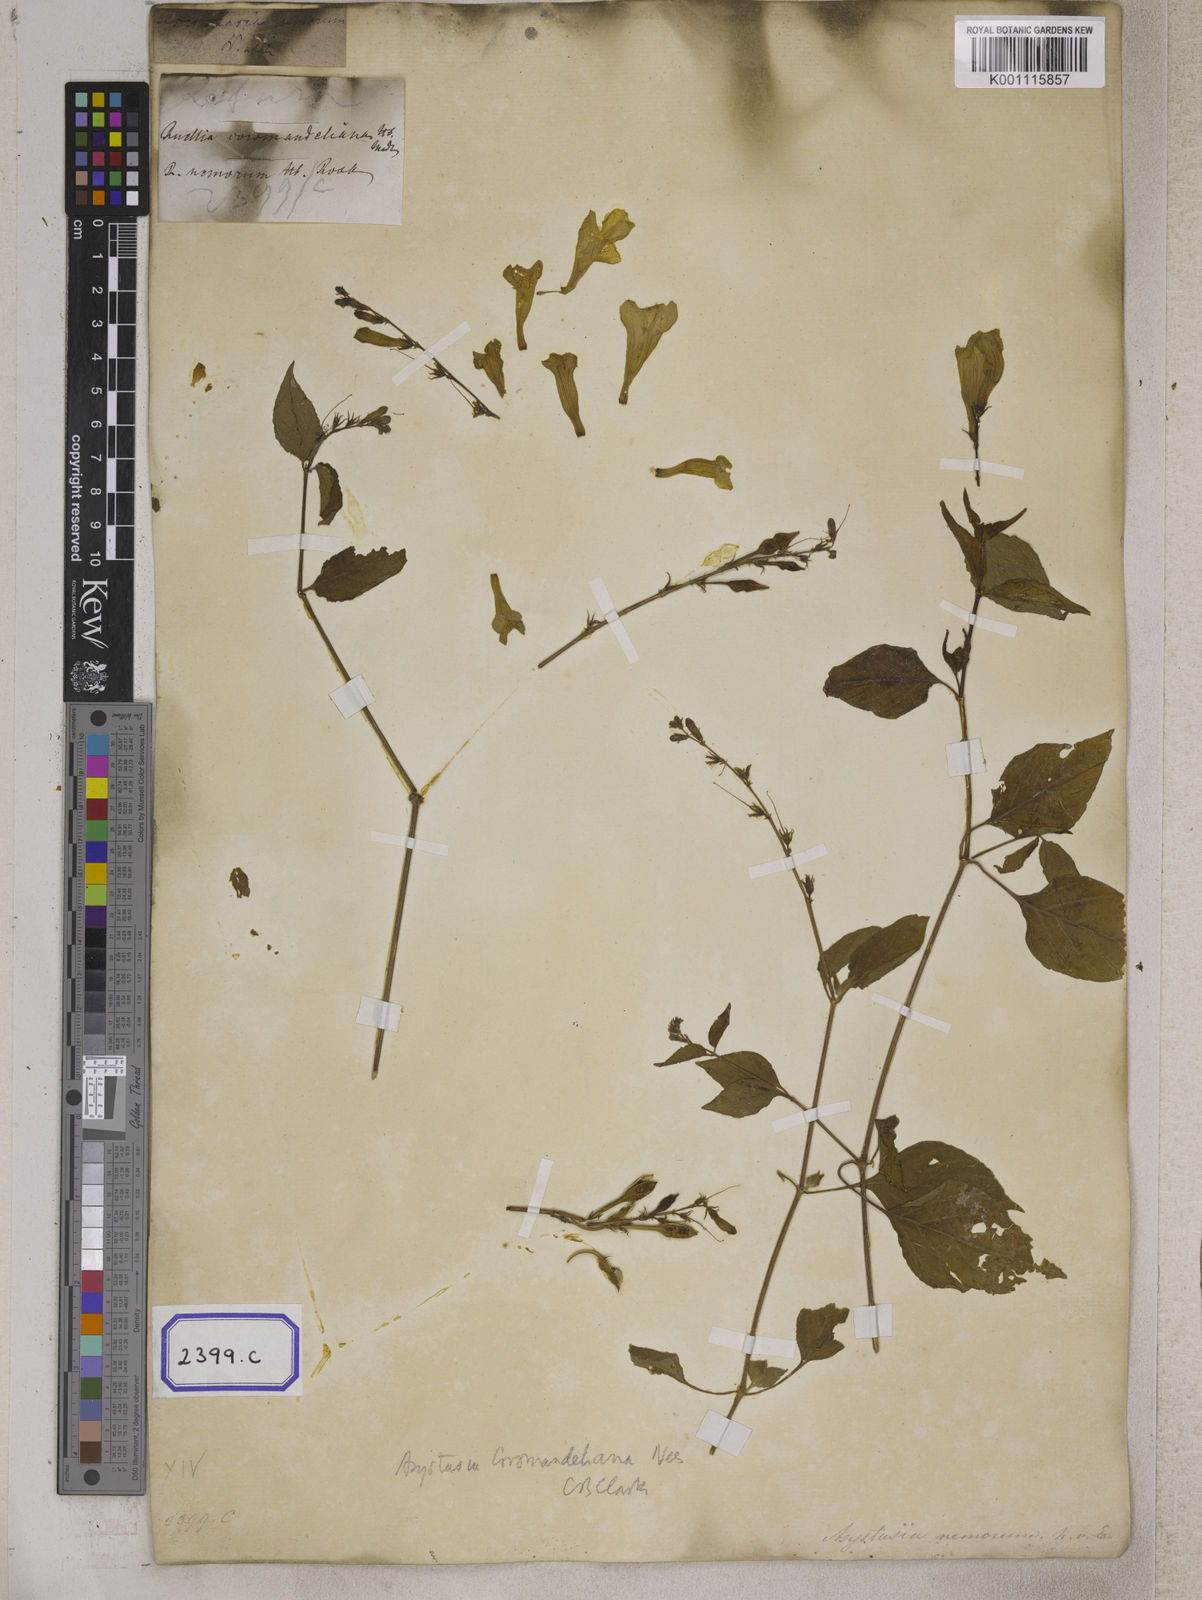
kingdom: Plantae
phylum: Tracheophyta
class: Magnoliopsida
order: Lamiales
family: Acanthaceae
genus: Asystasia
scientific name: Asystasia gangetica
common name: Chinese violet
